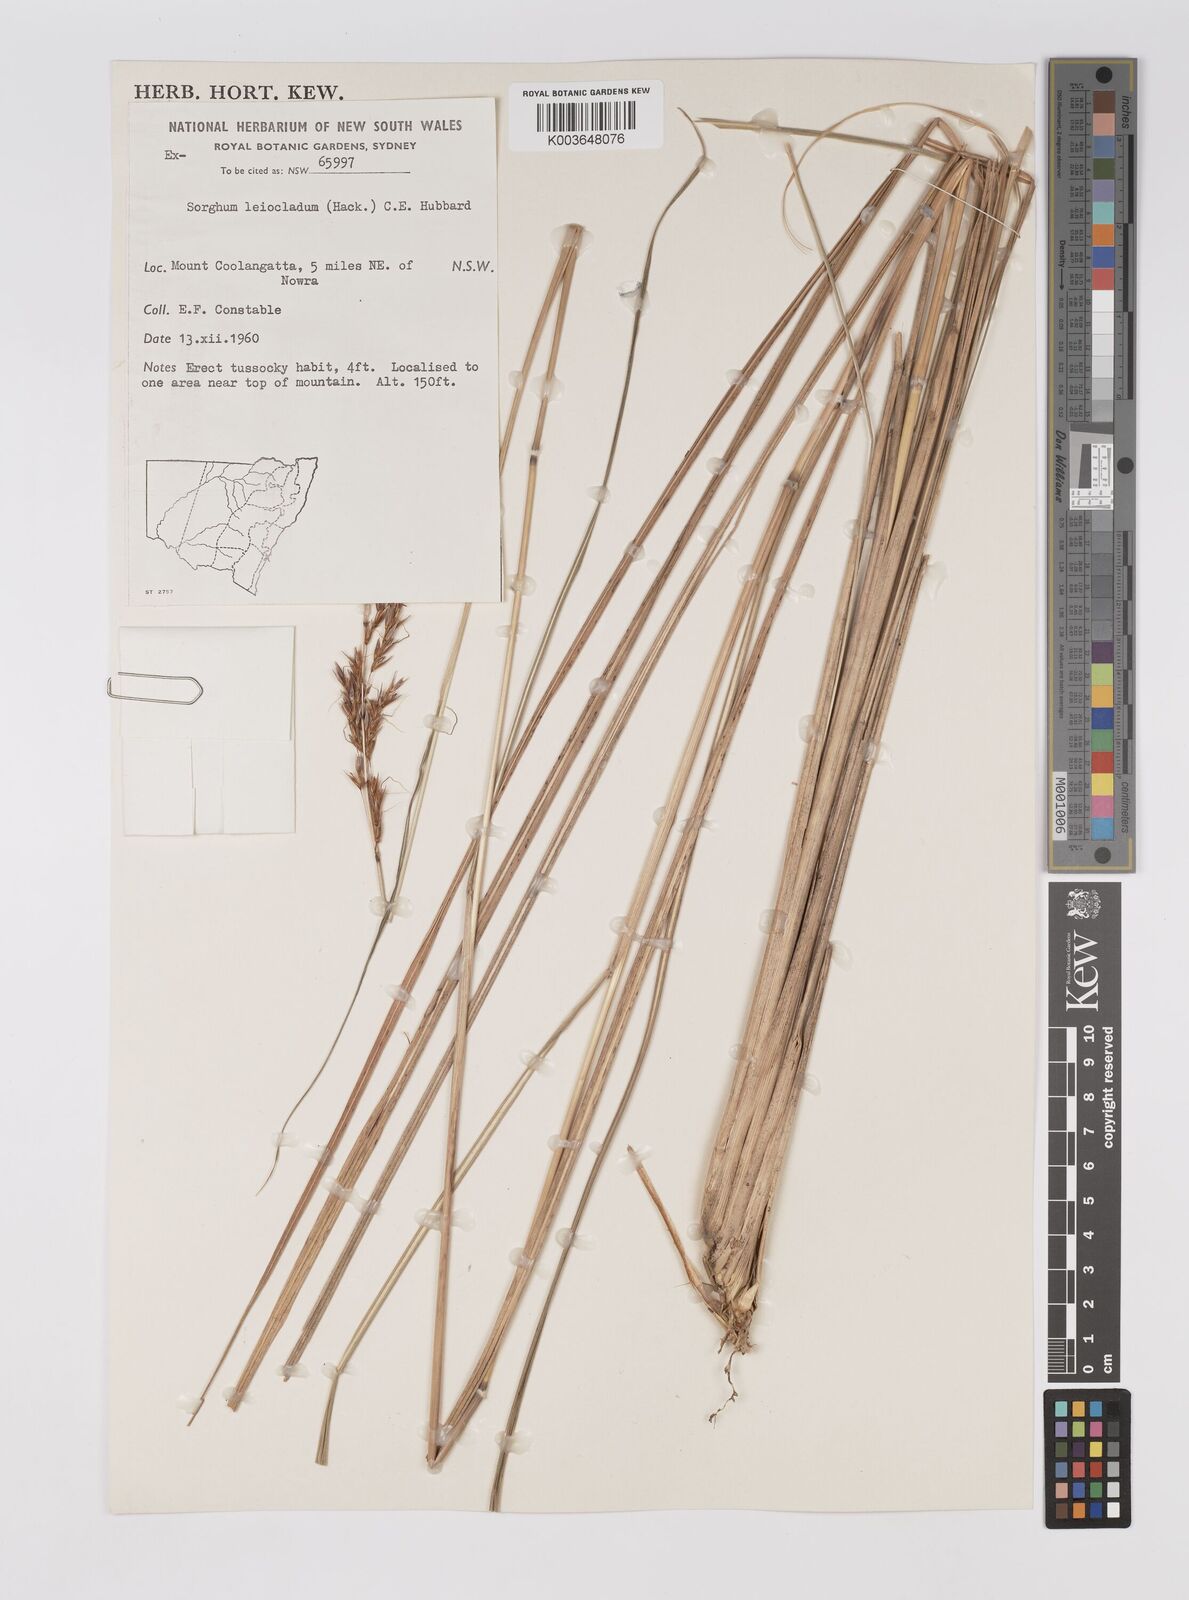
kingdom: Plantae
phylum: Tracheophyta
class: Liliopsida
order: Poales
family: Poaceae
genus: Sarga
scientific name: Sarga leioclada
